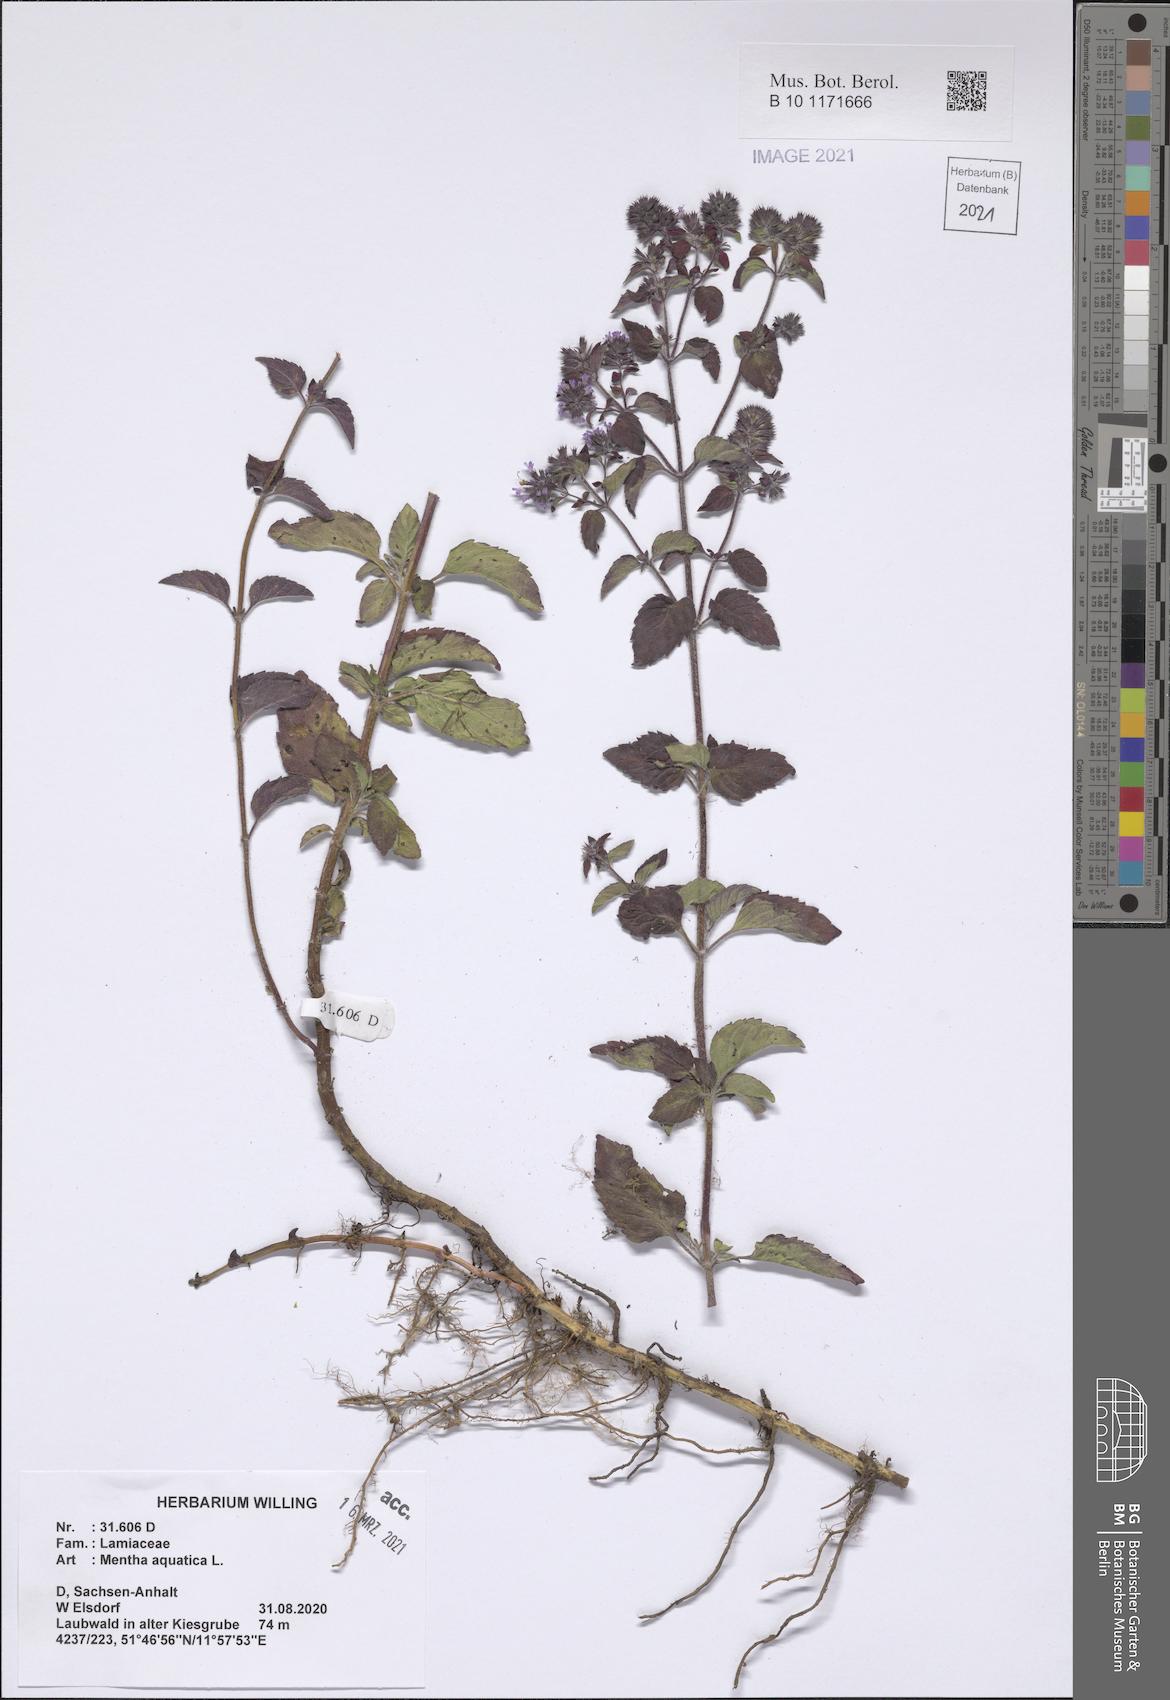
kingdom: Plantae
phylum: Tracheophyta
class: Magnoliopsida
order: Lamiales
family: Lamiaceae
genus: Mentha
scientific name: Mentha aquatica
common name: Water mint
